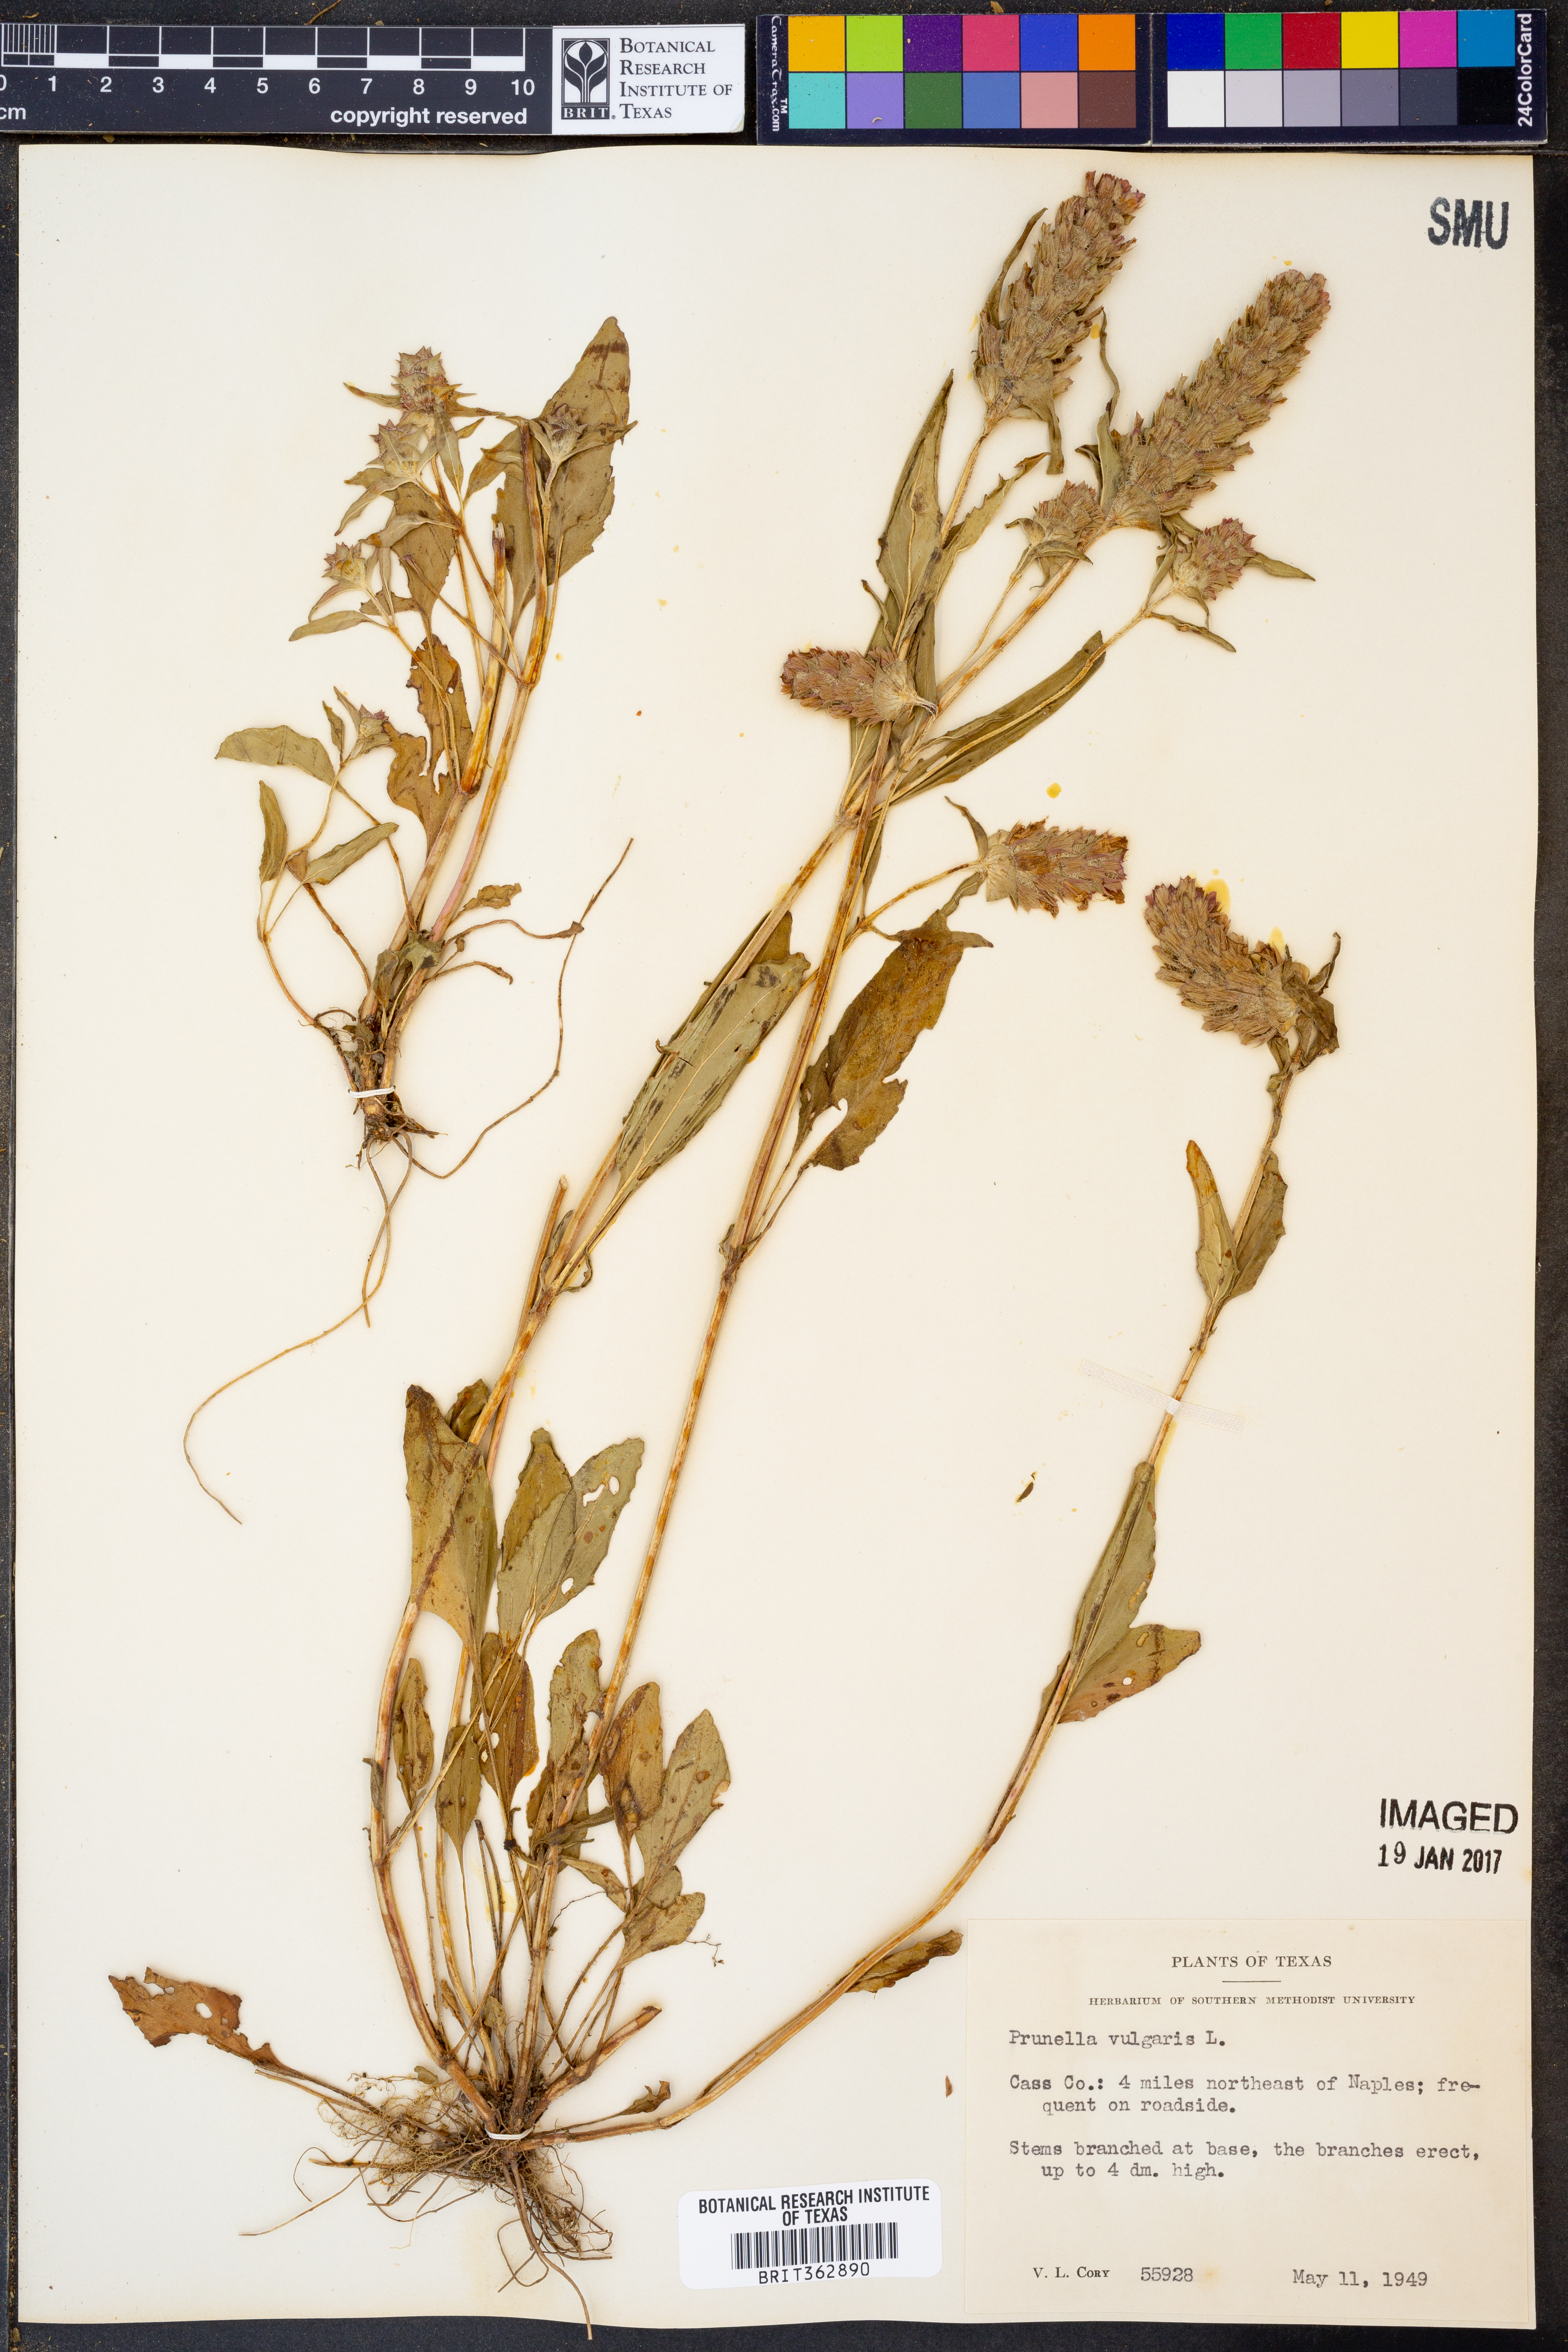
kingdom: Plantae
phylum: Tracheophyta
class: Magnoliopsida
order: Lamiales
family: Lamiaceae
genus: Prunella
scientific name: Prunella vulgaris
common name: Heal-all
